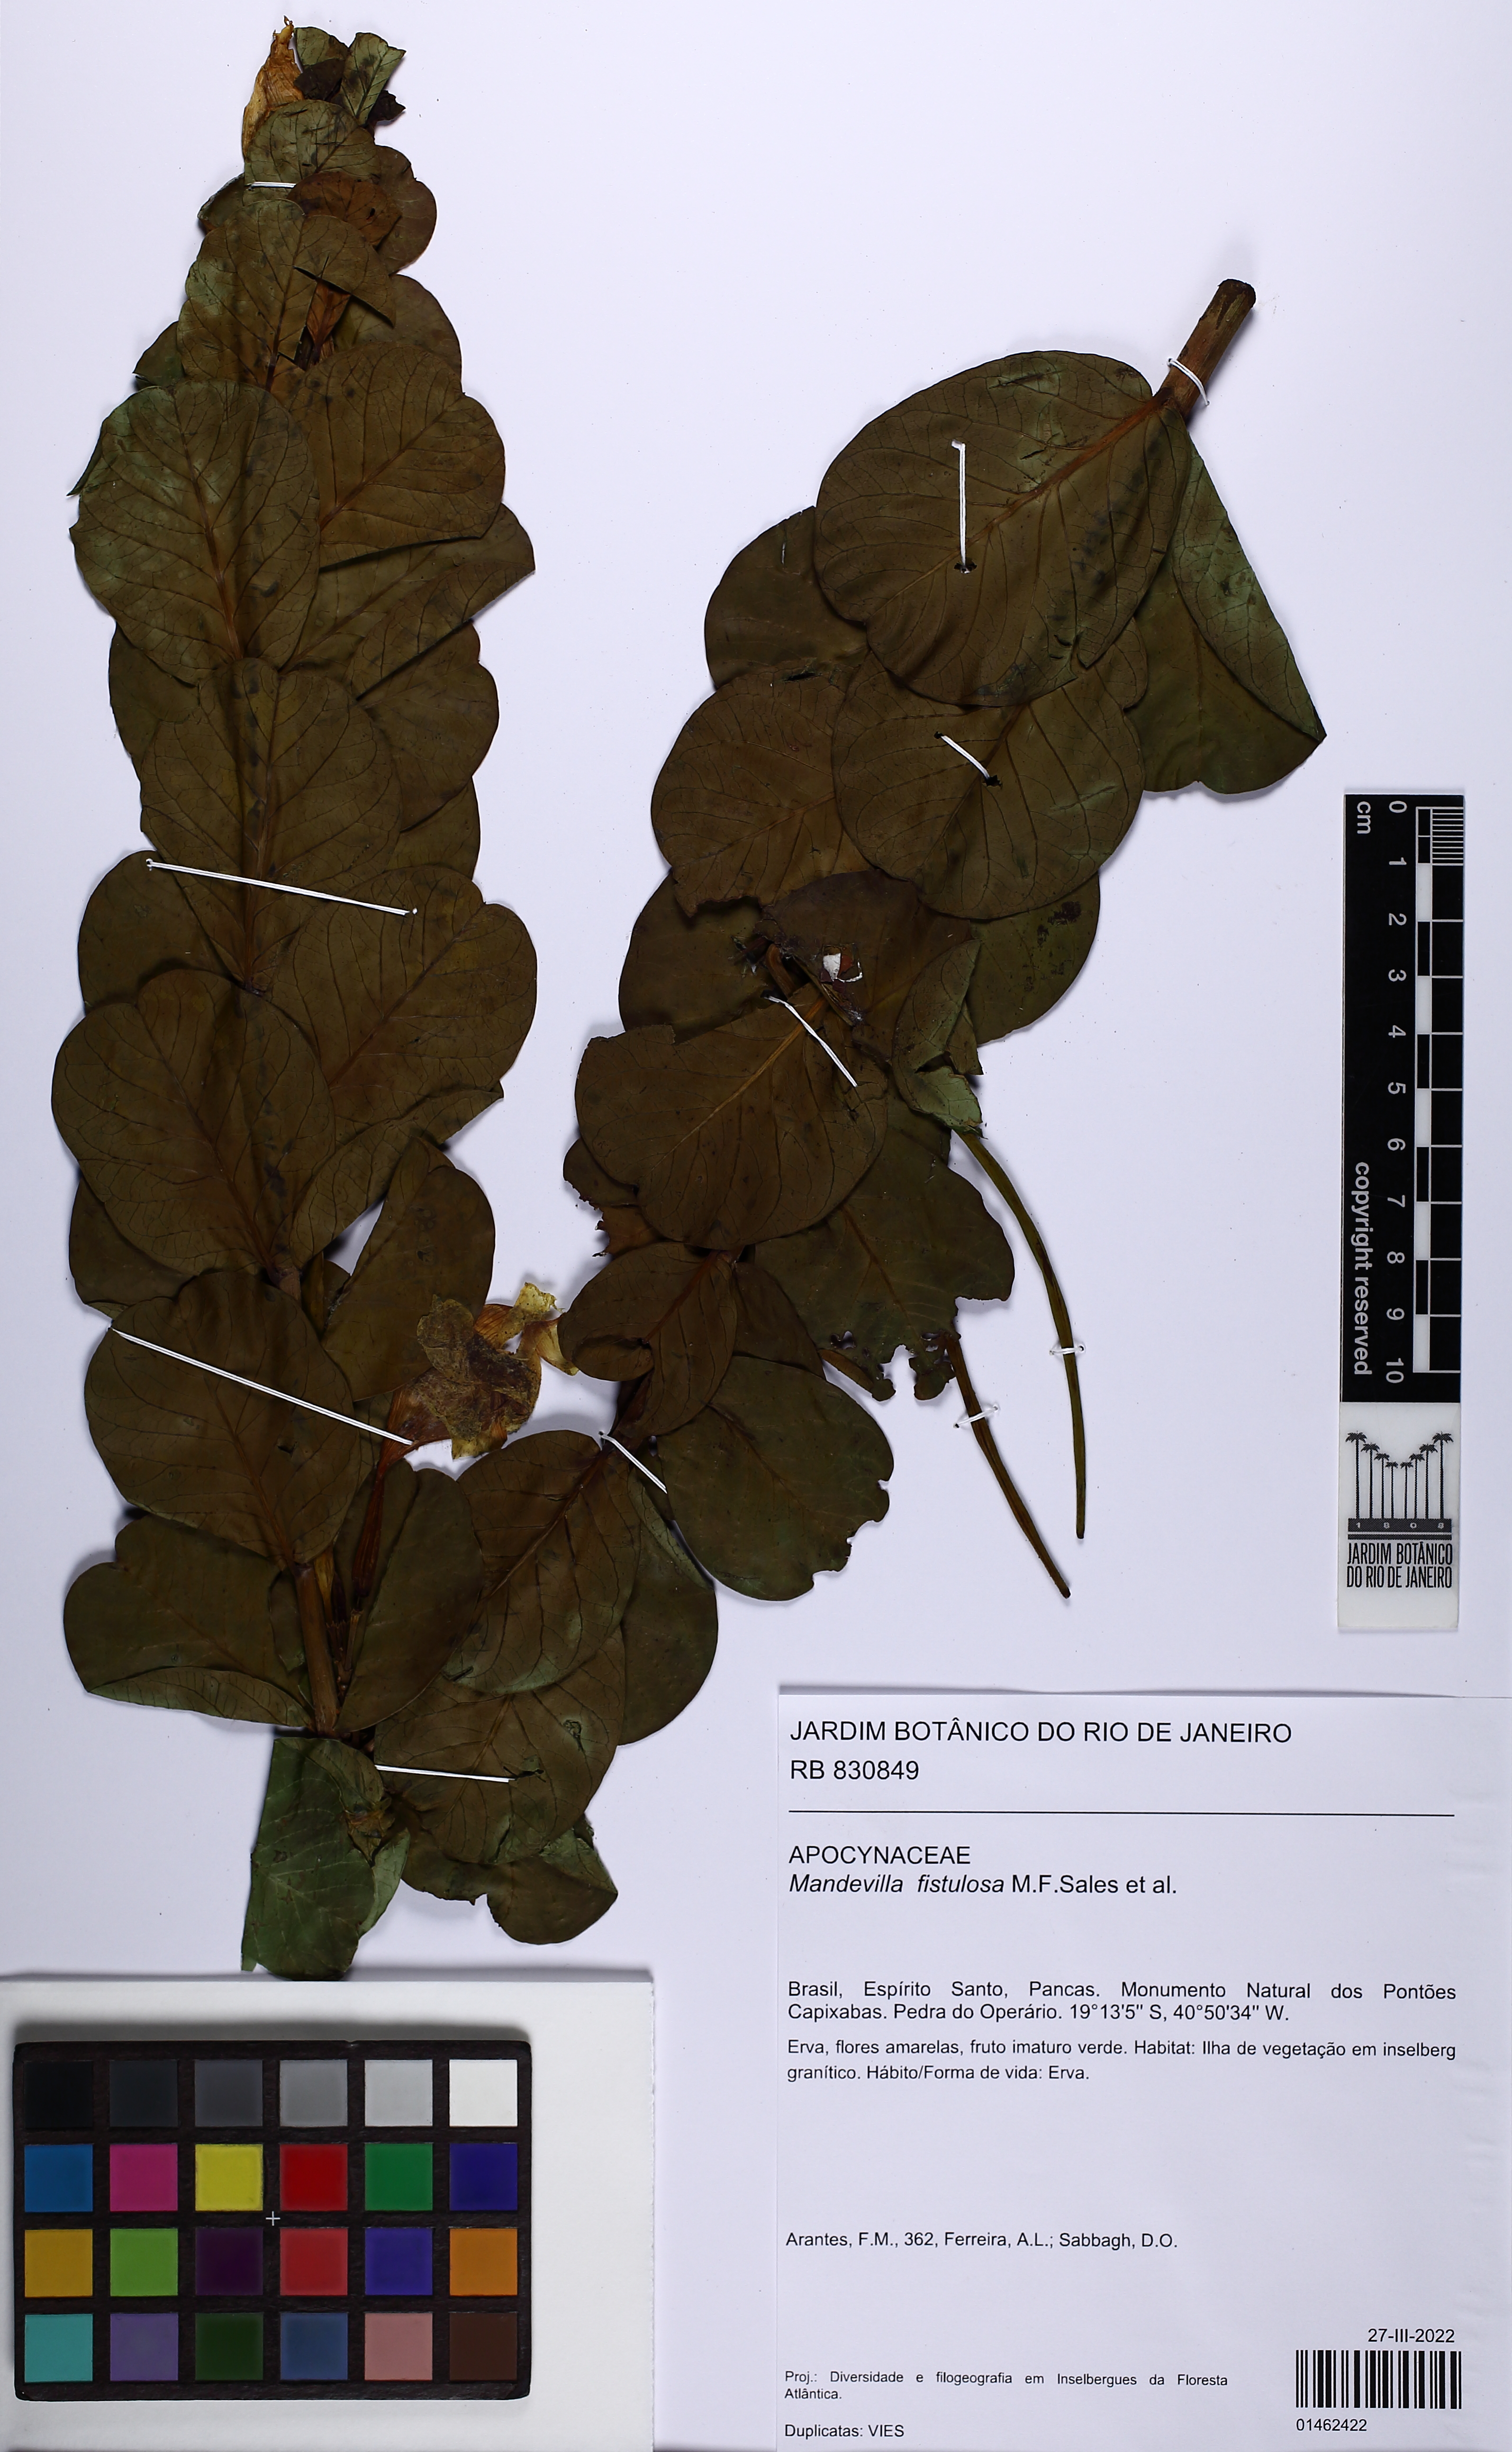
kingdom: Plantae
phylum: Tracheophyta
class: Magnoliopsida
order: Gentianales
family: Apocynaceae
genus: Mandevilla
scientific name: Mandevilla fistulosa
